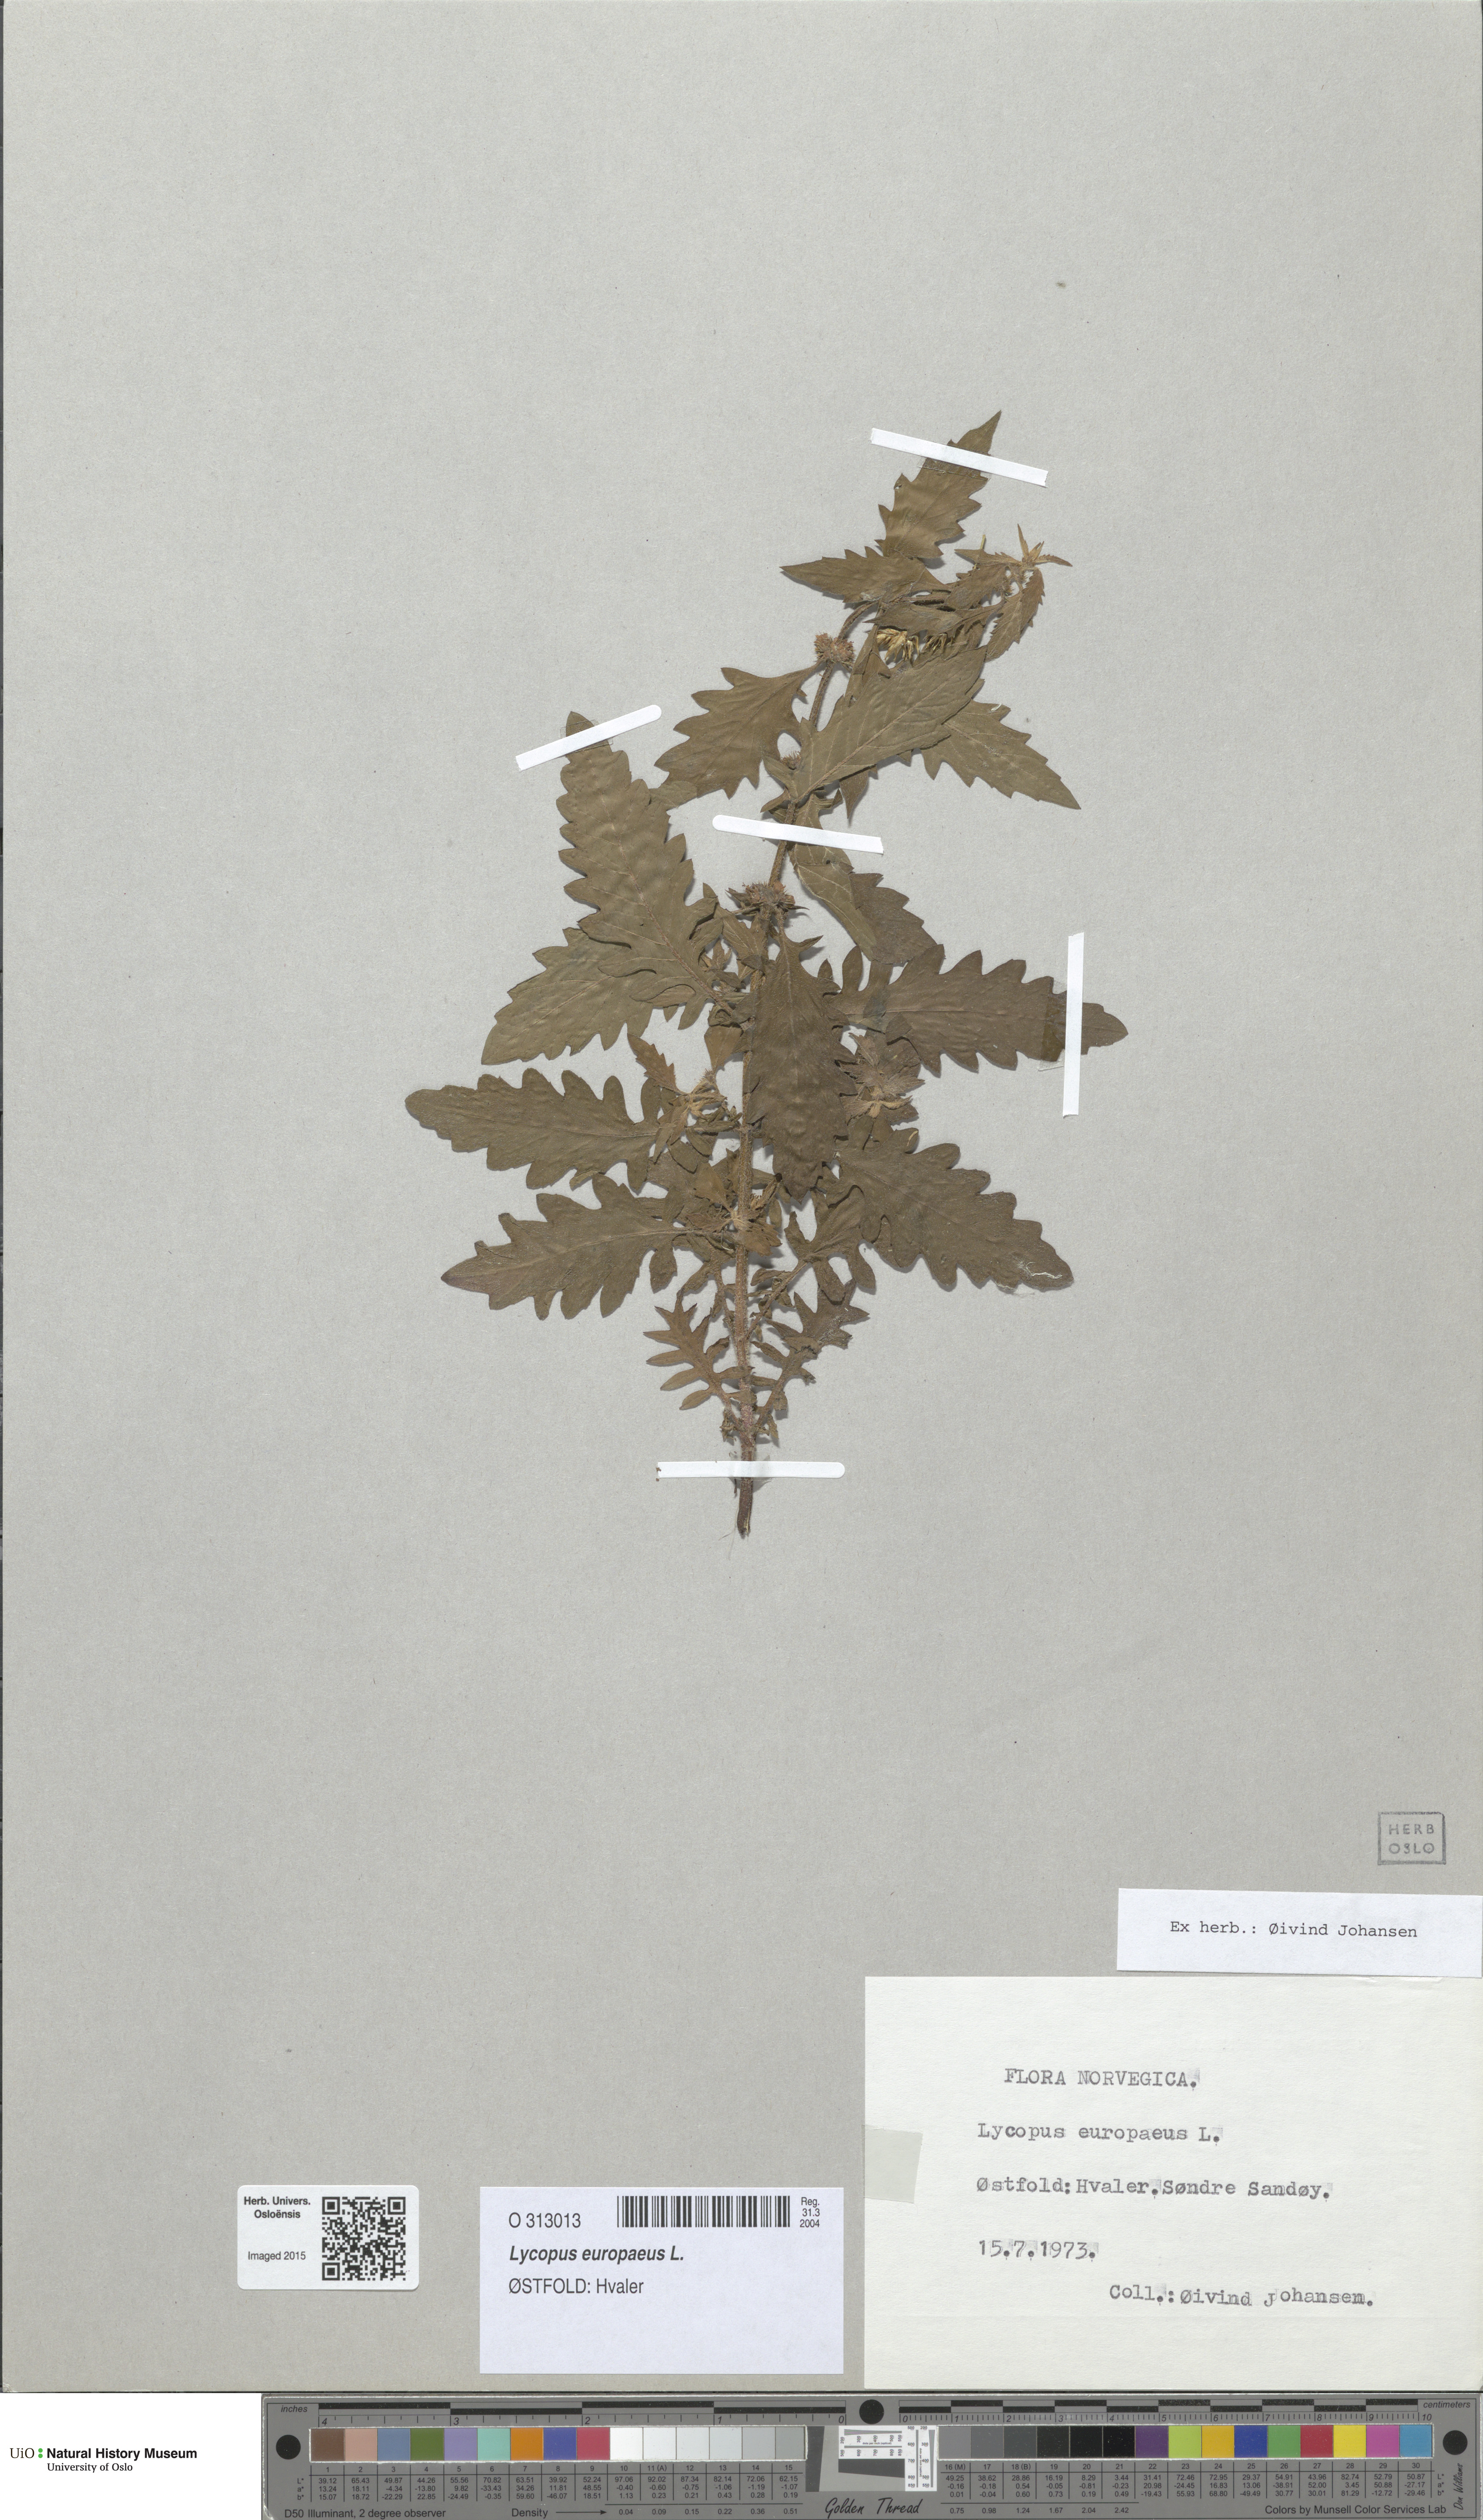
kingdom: Plantae
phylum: Tracheophyta
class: Magnoliopsida
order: Lamiales
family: Lamiaceae
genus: Lycopus
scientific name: Lycopus europaeus
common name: European bugleweed
